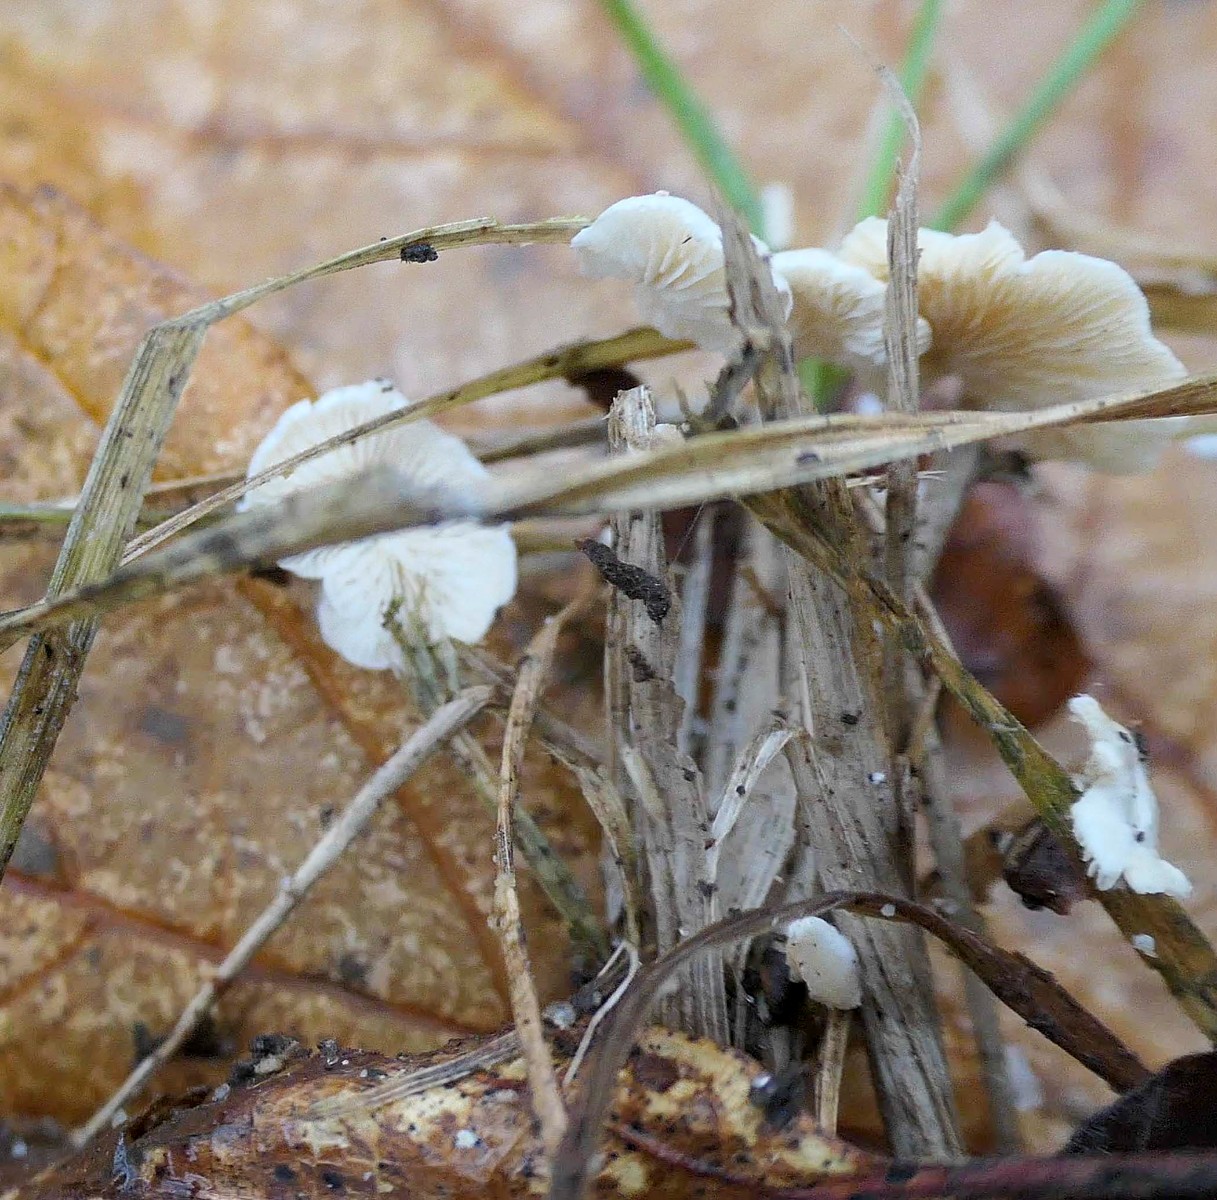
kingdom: Fungi
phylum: Basidiomycota
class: Agaricomycetes
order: Agaricales
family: Crepidotaceae
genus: Crepidotus
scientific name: Crepidotus epibryus
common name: førne-muslingesvamp
